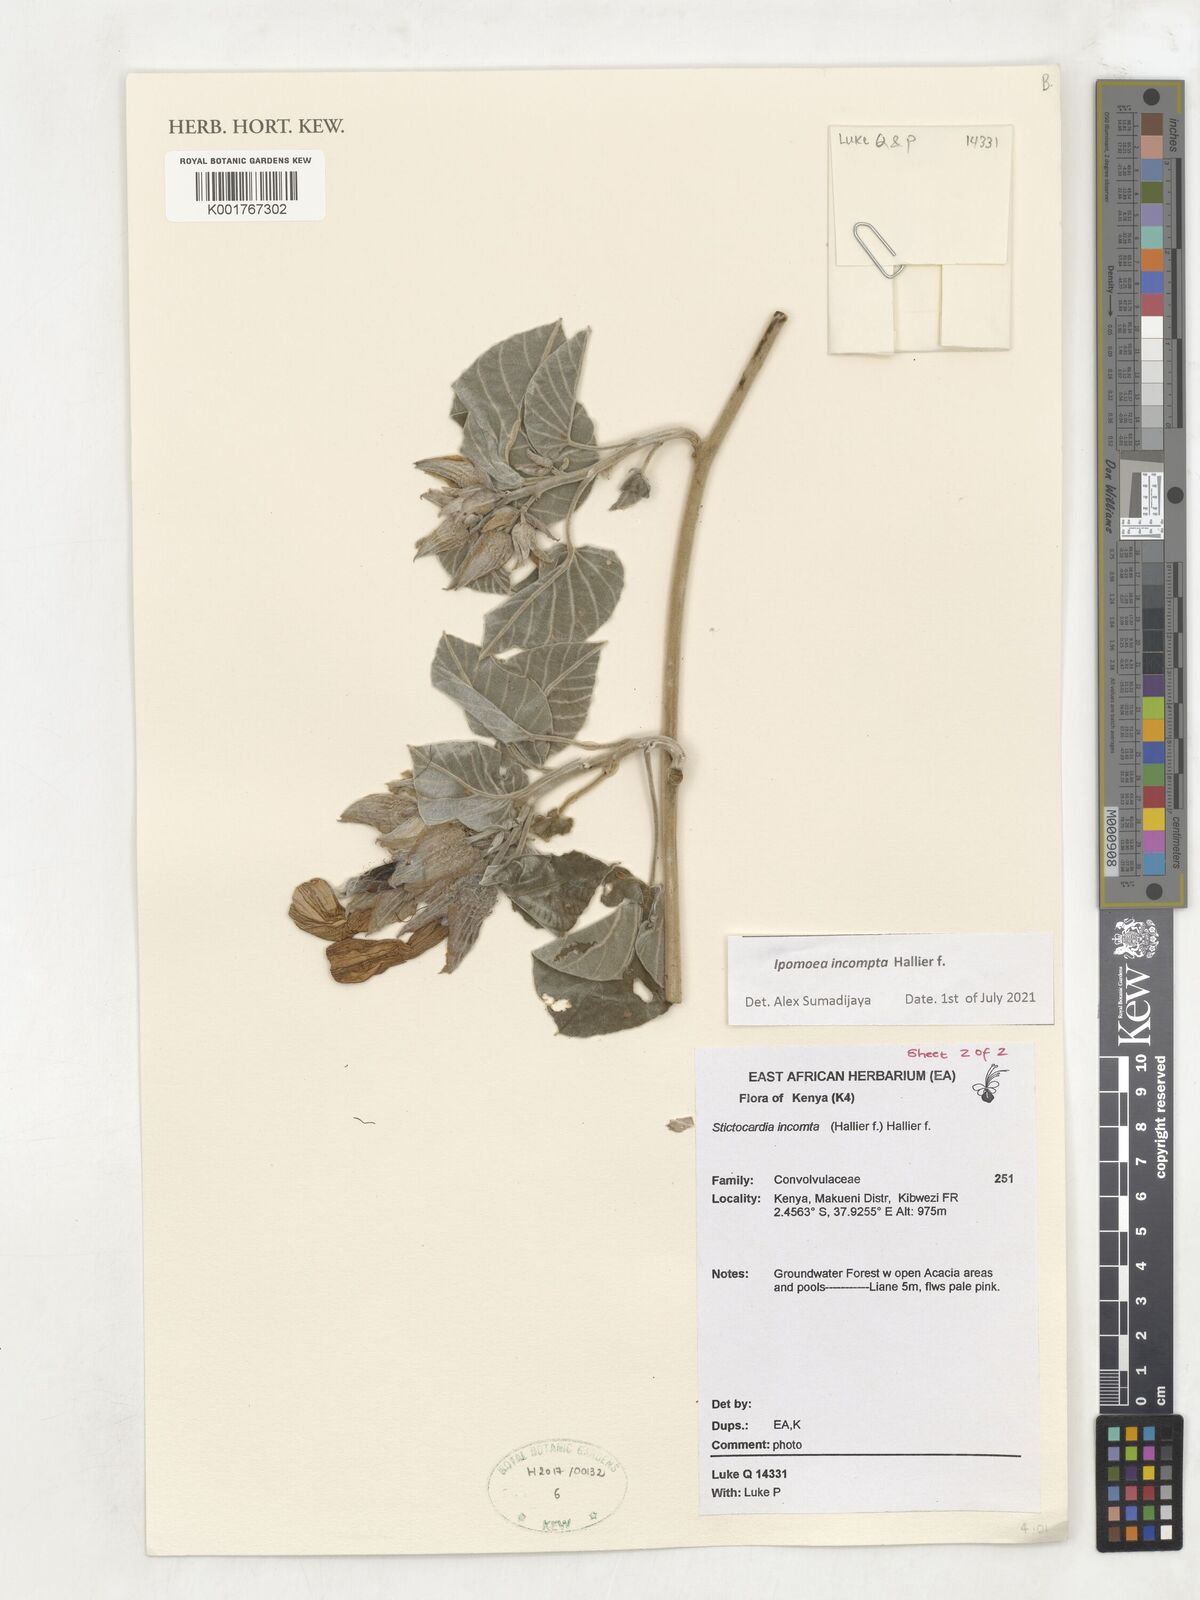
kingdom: Plantae
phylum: Tracheophyta
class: Magnoliopsida
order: Solanales
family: Convolvulaceae
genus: Stictocardia
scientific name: Stictocardia incomta
